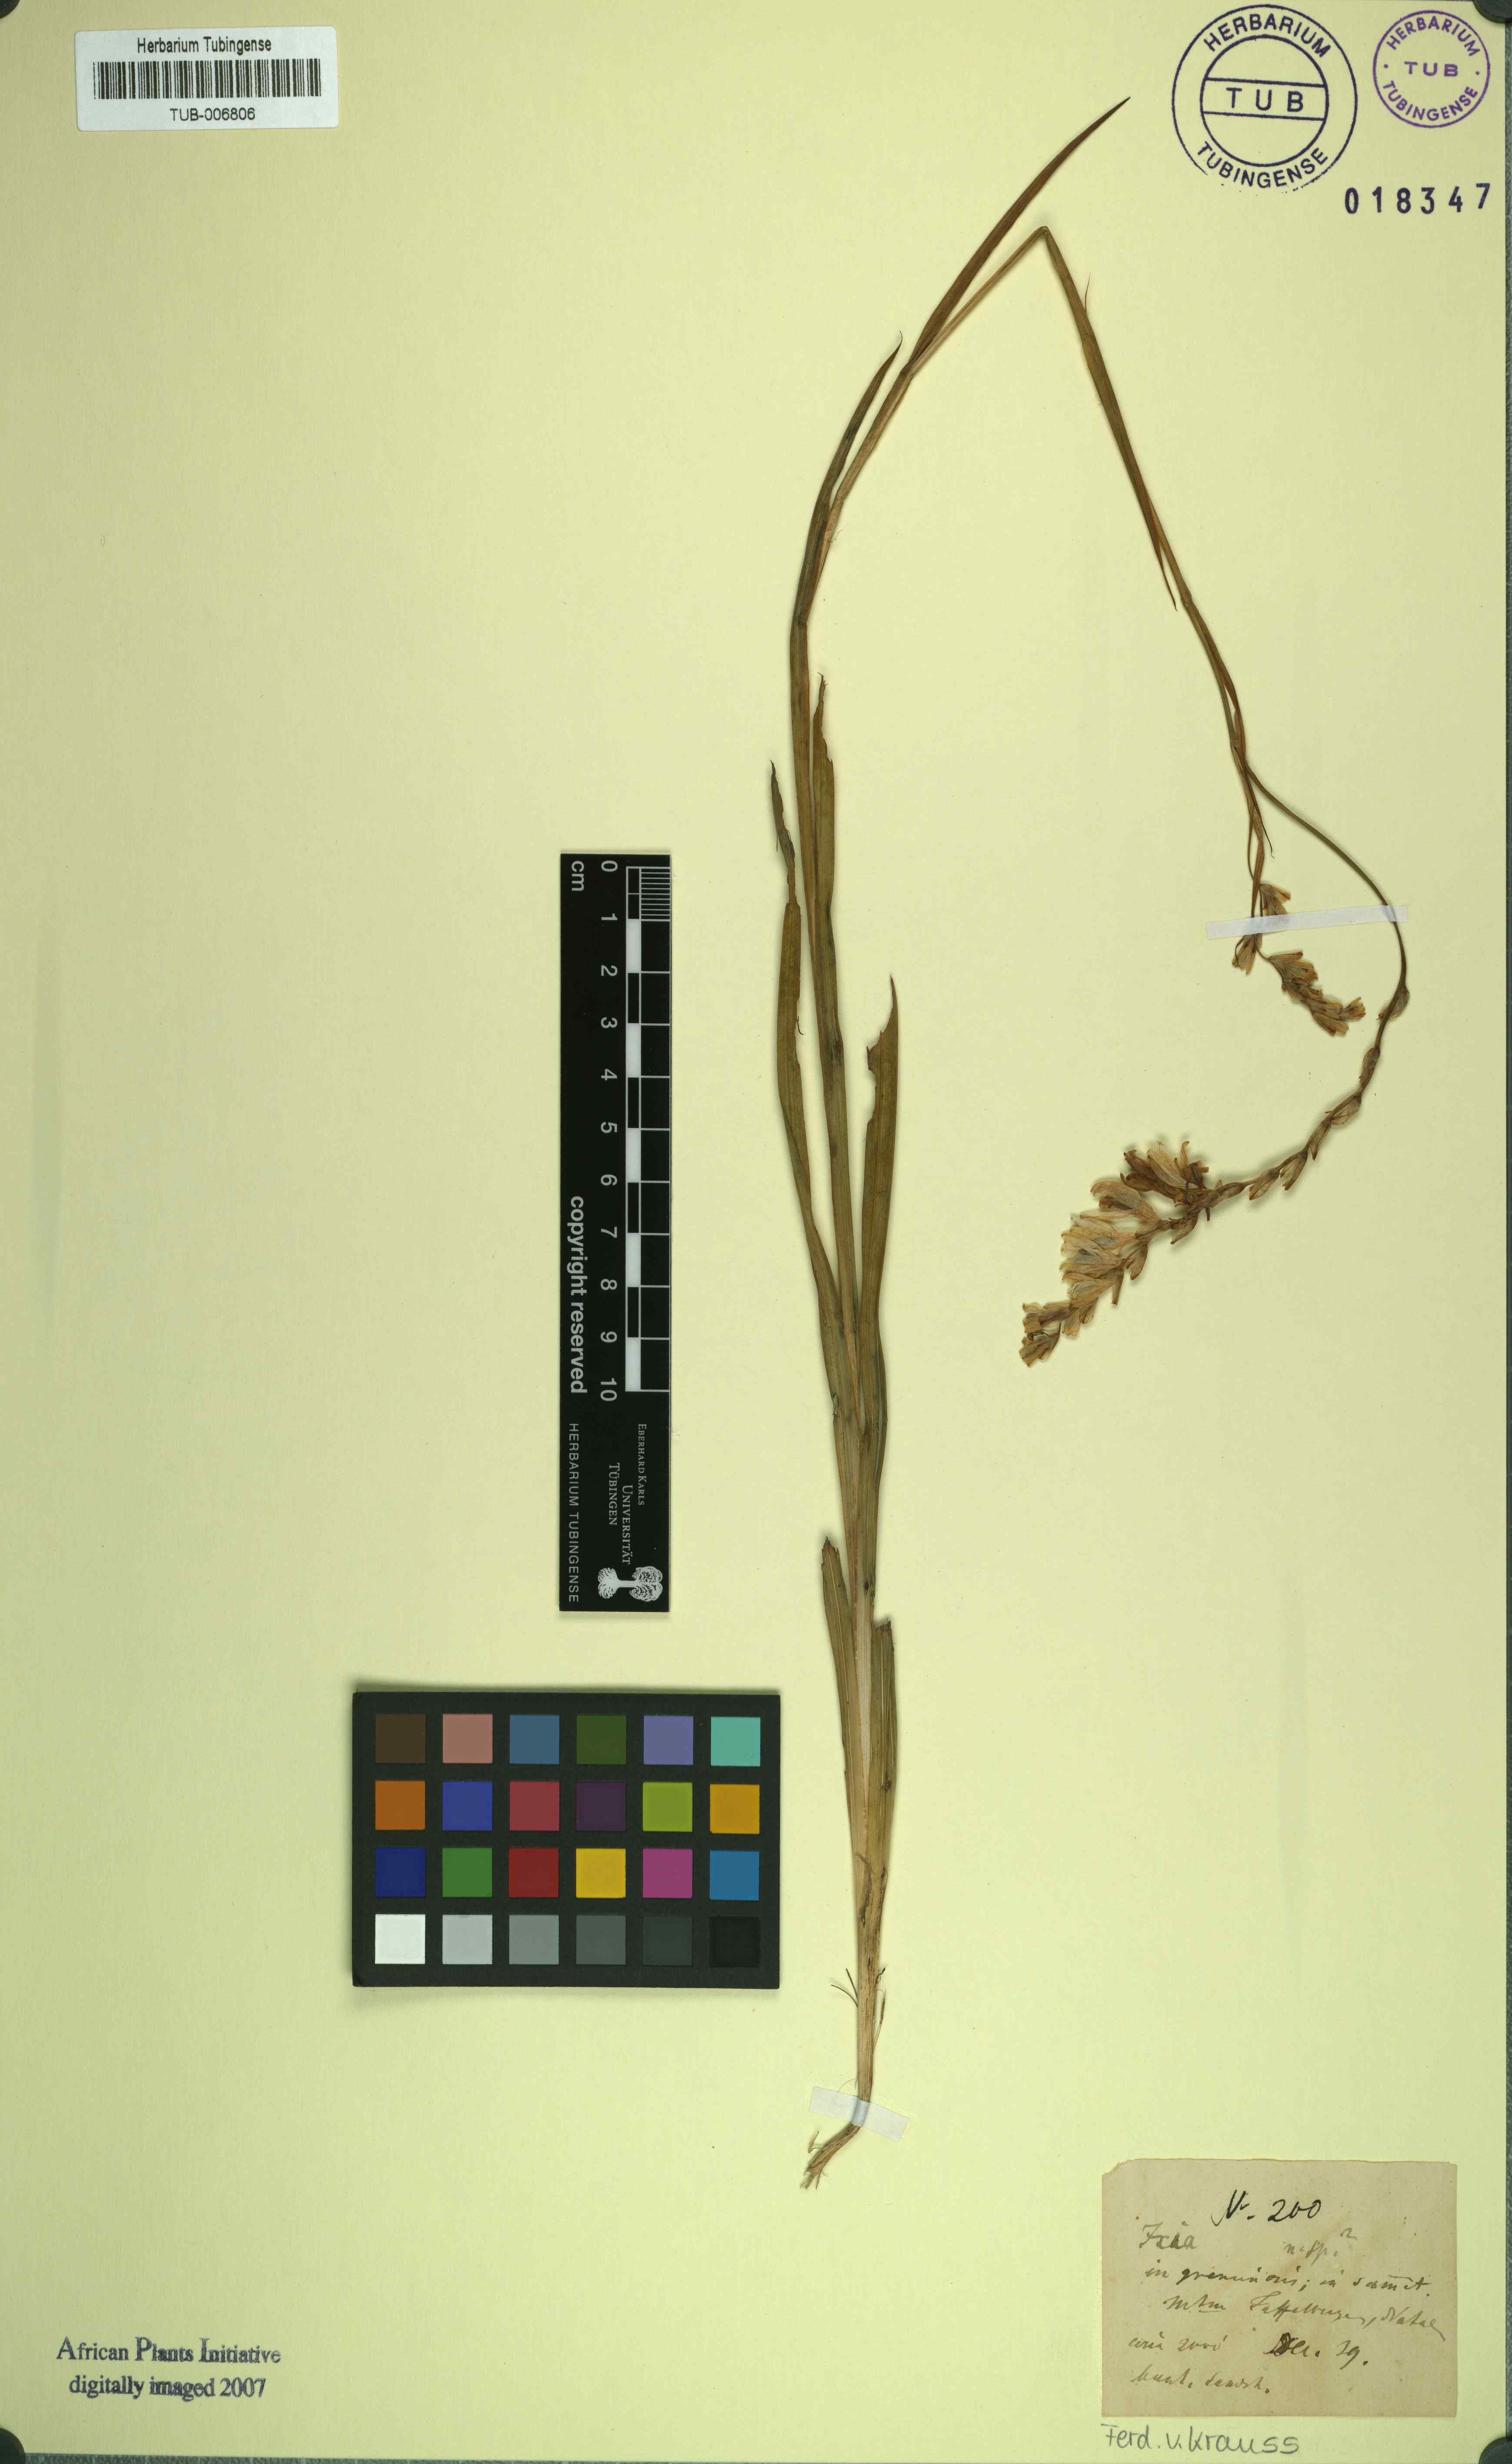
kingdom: Plantae
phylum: Tracheophyta
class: Liliopsida
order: Asparagales
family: Iridaceae
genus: Ixia
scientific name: Ixia
